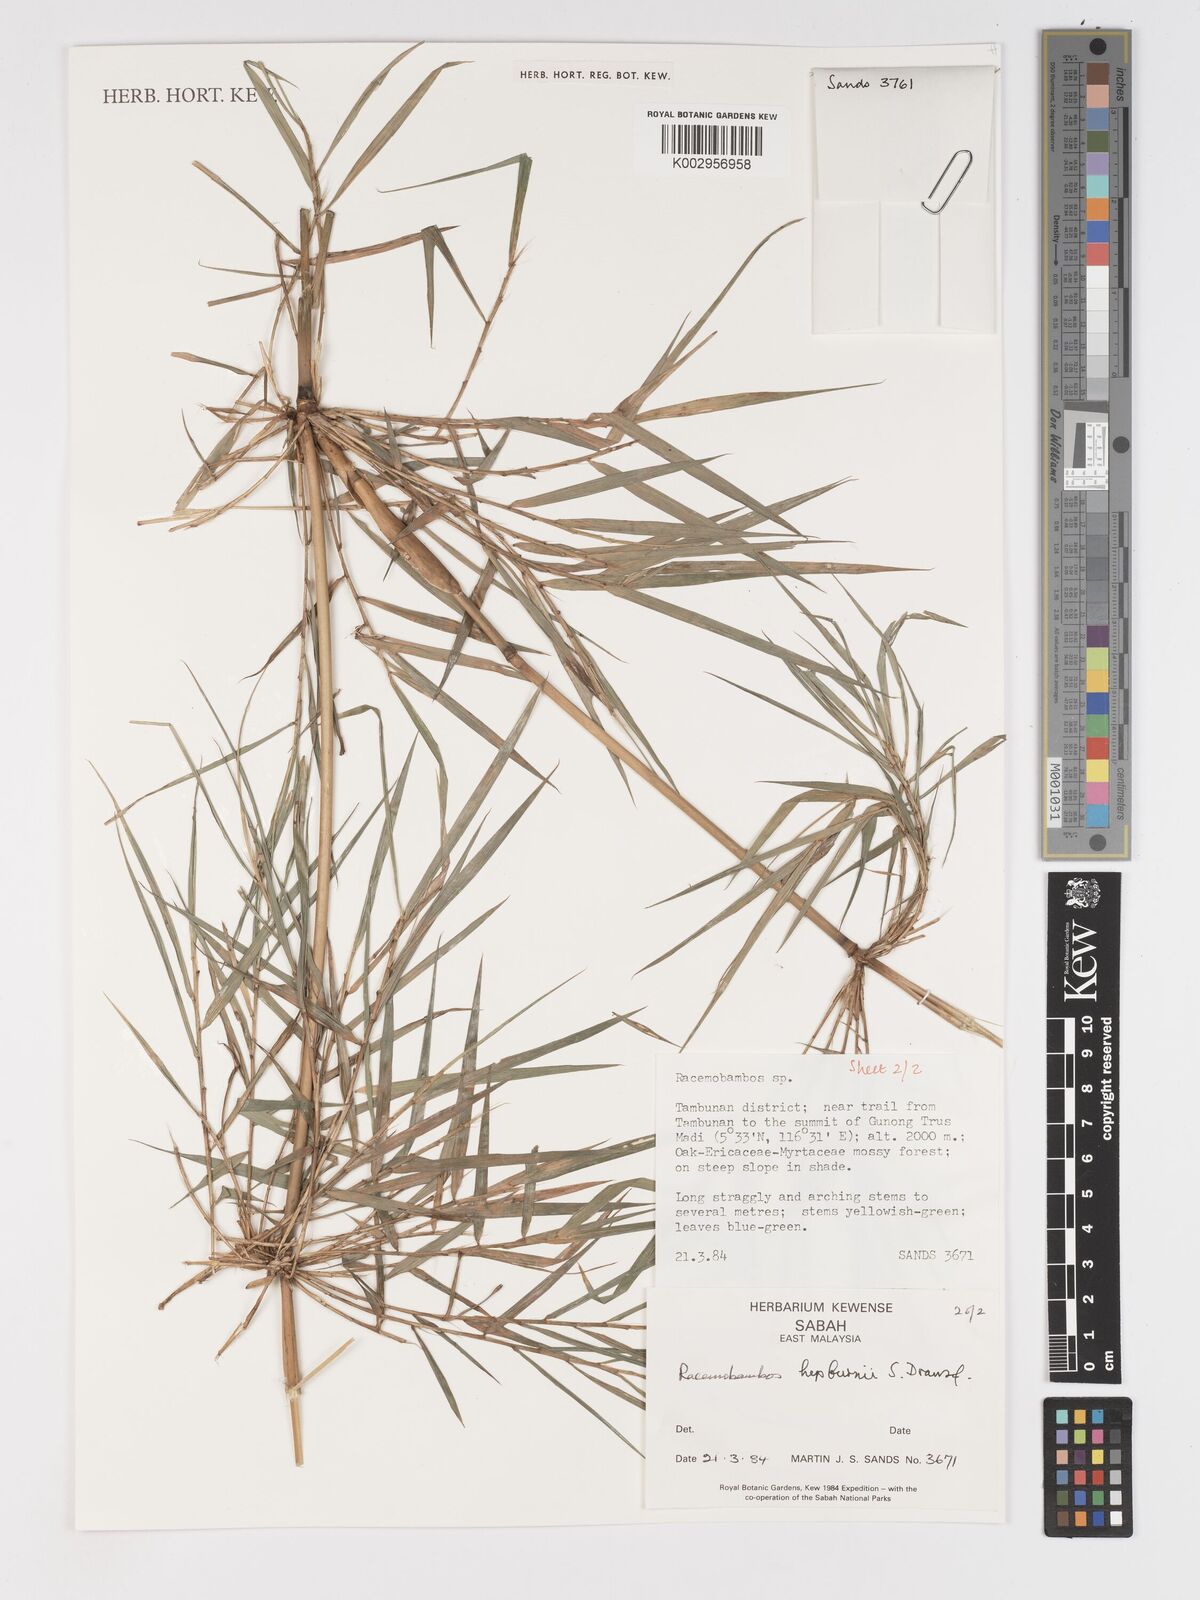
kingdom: Plantae
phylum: Tracheophyta
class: Liliopsida
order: Poales
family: Poaceae
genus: Racemobambos
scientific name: Racemobambos hepburnii
